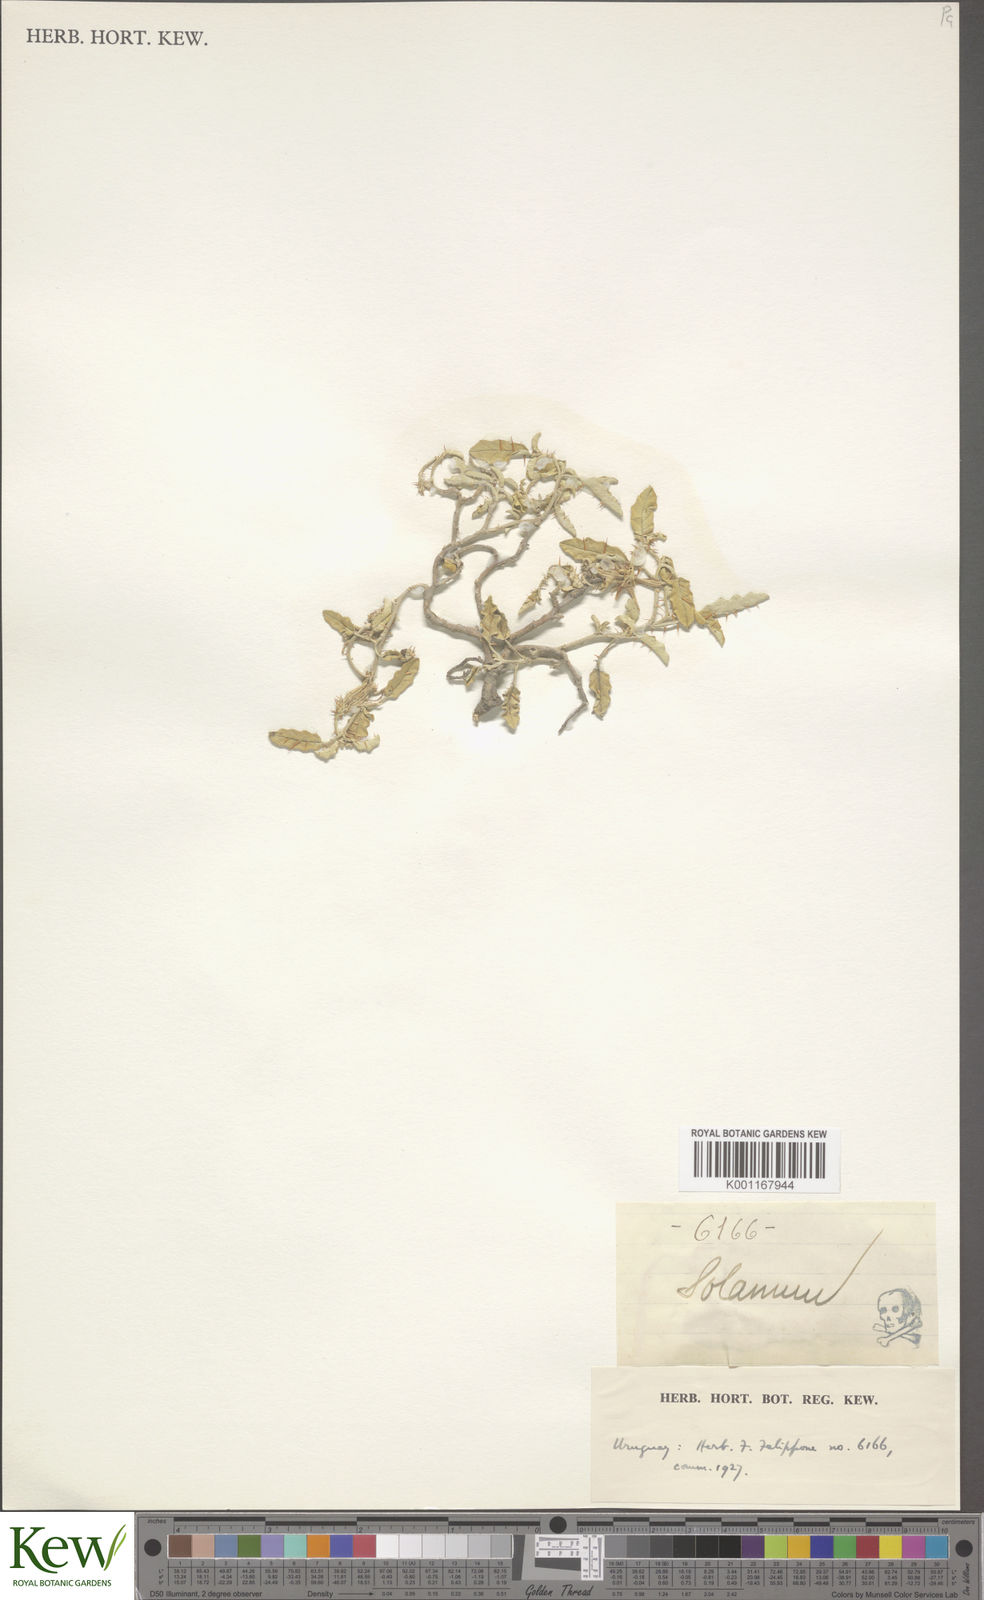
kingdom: Plantae
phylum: Tracheophyta
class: Magnoliopsida
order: Solanales
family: Solanaceae
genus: Solanum
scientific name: Solanum
